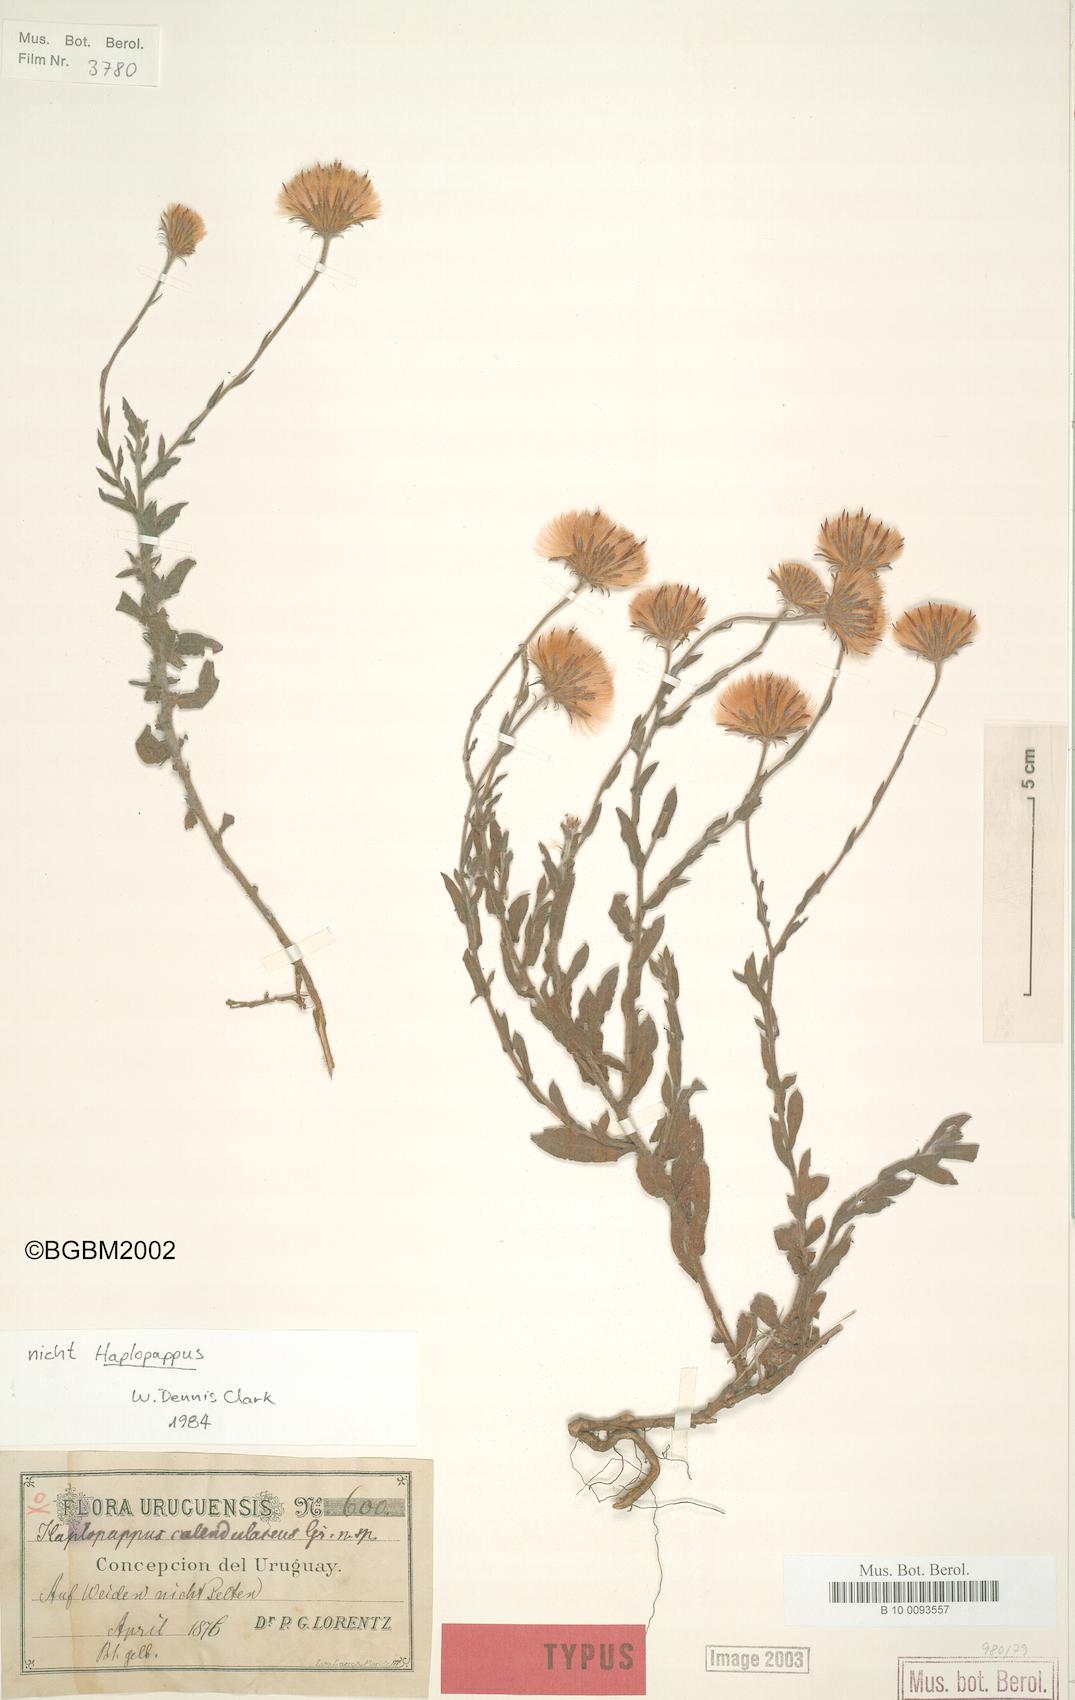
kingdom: Plantae
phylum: Tracheophyta
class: Magnoliopsida
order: Asterales
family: Asteraceae
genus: Noticastrum
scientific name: Noticastrum acuminatum
